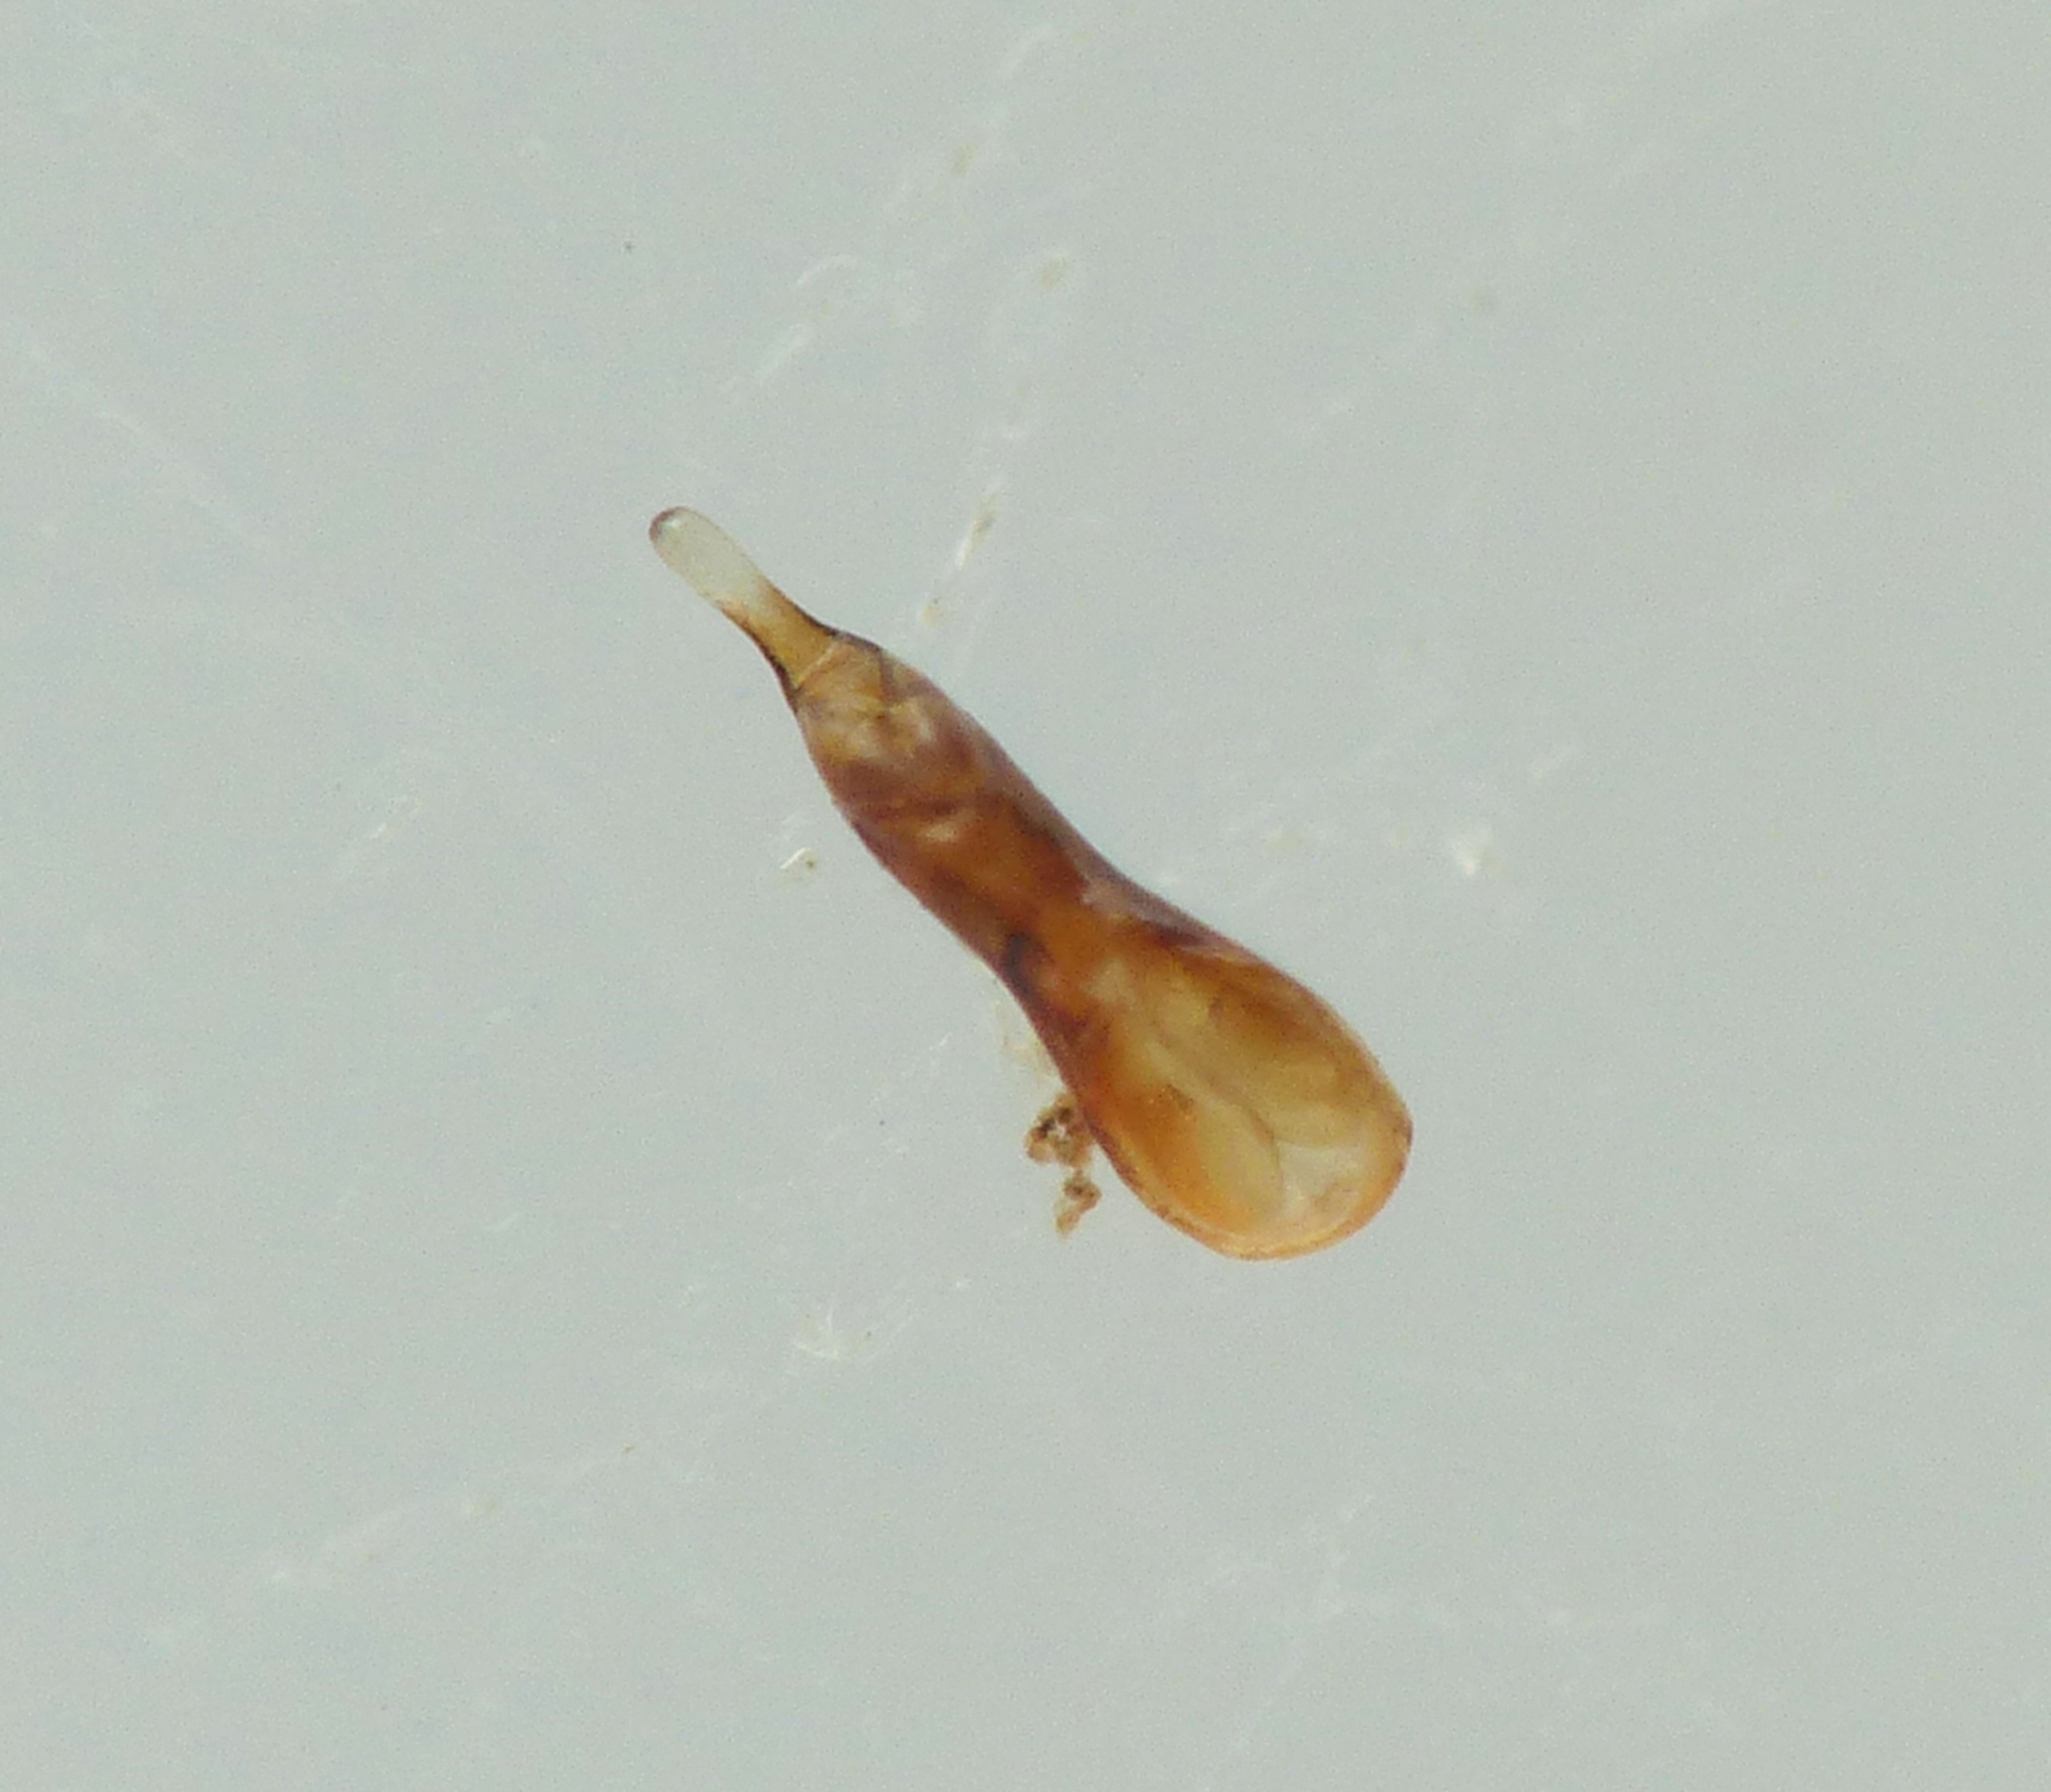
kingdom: Animalia
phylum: Arthropoda
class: Insecta
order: Coleoptera
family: Staphylinidae
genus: Gabrius
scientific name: Gabrius trossulus
